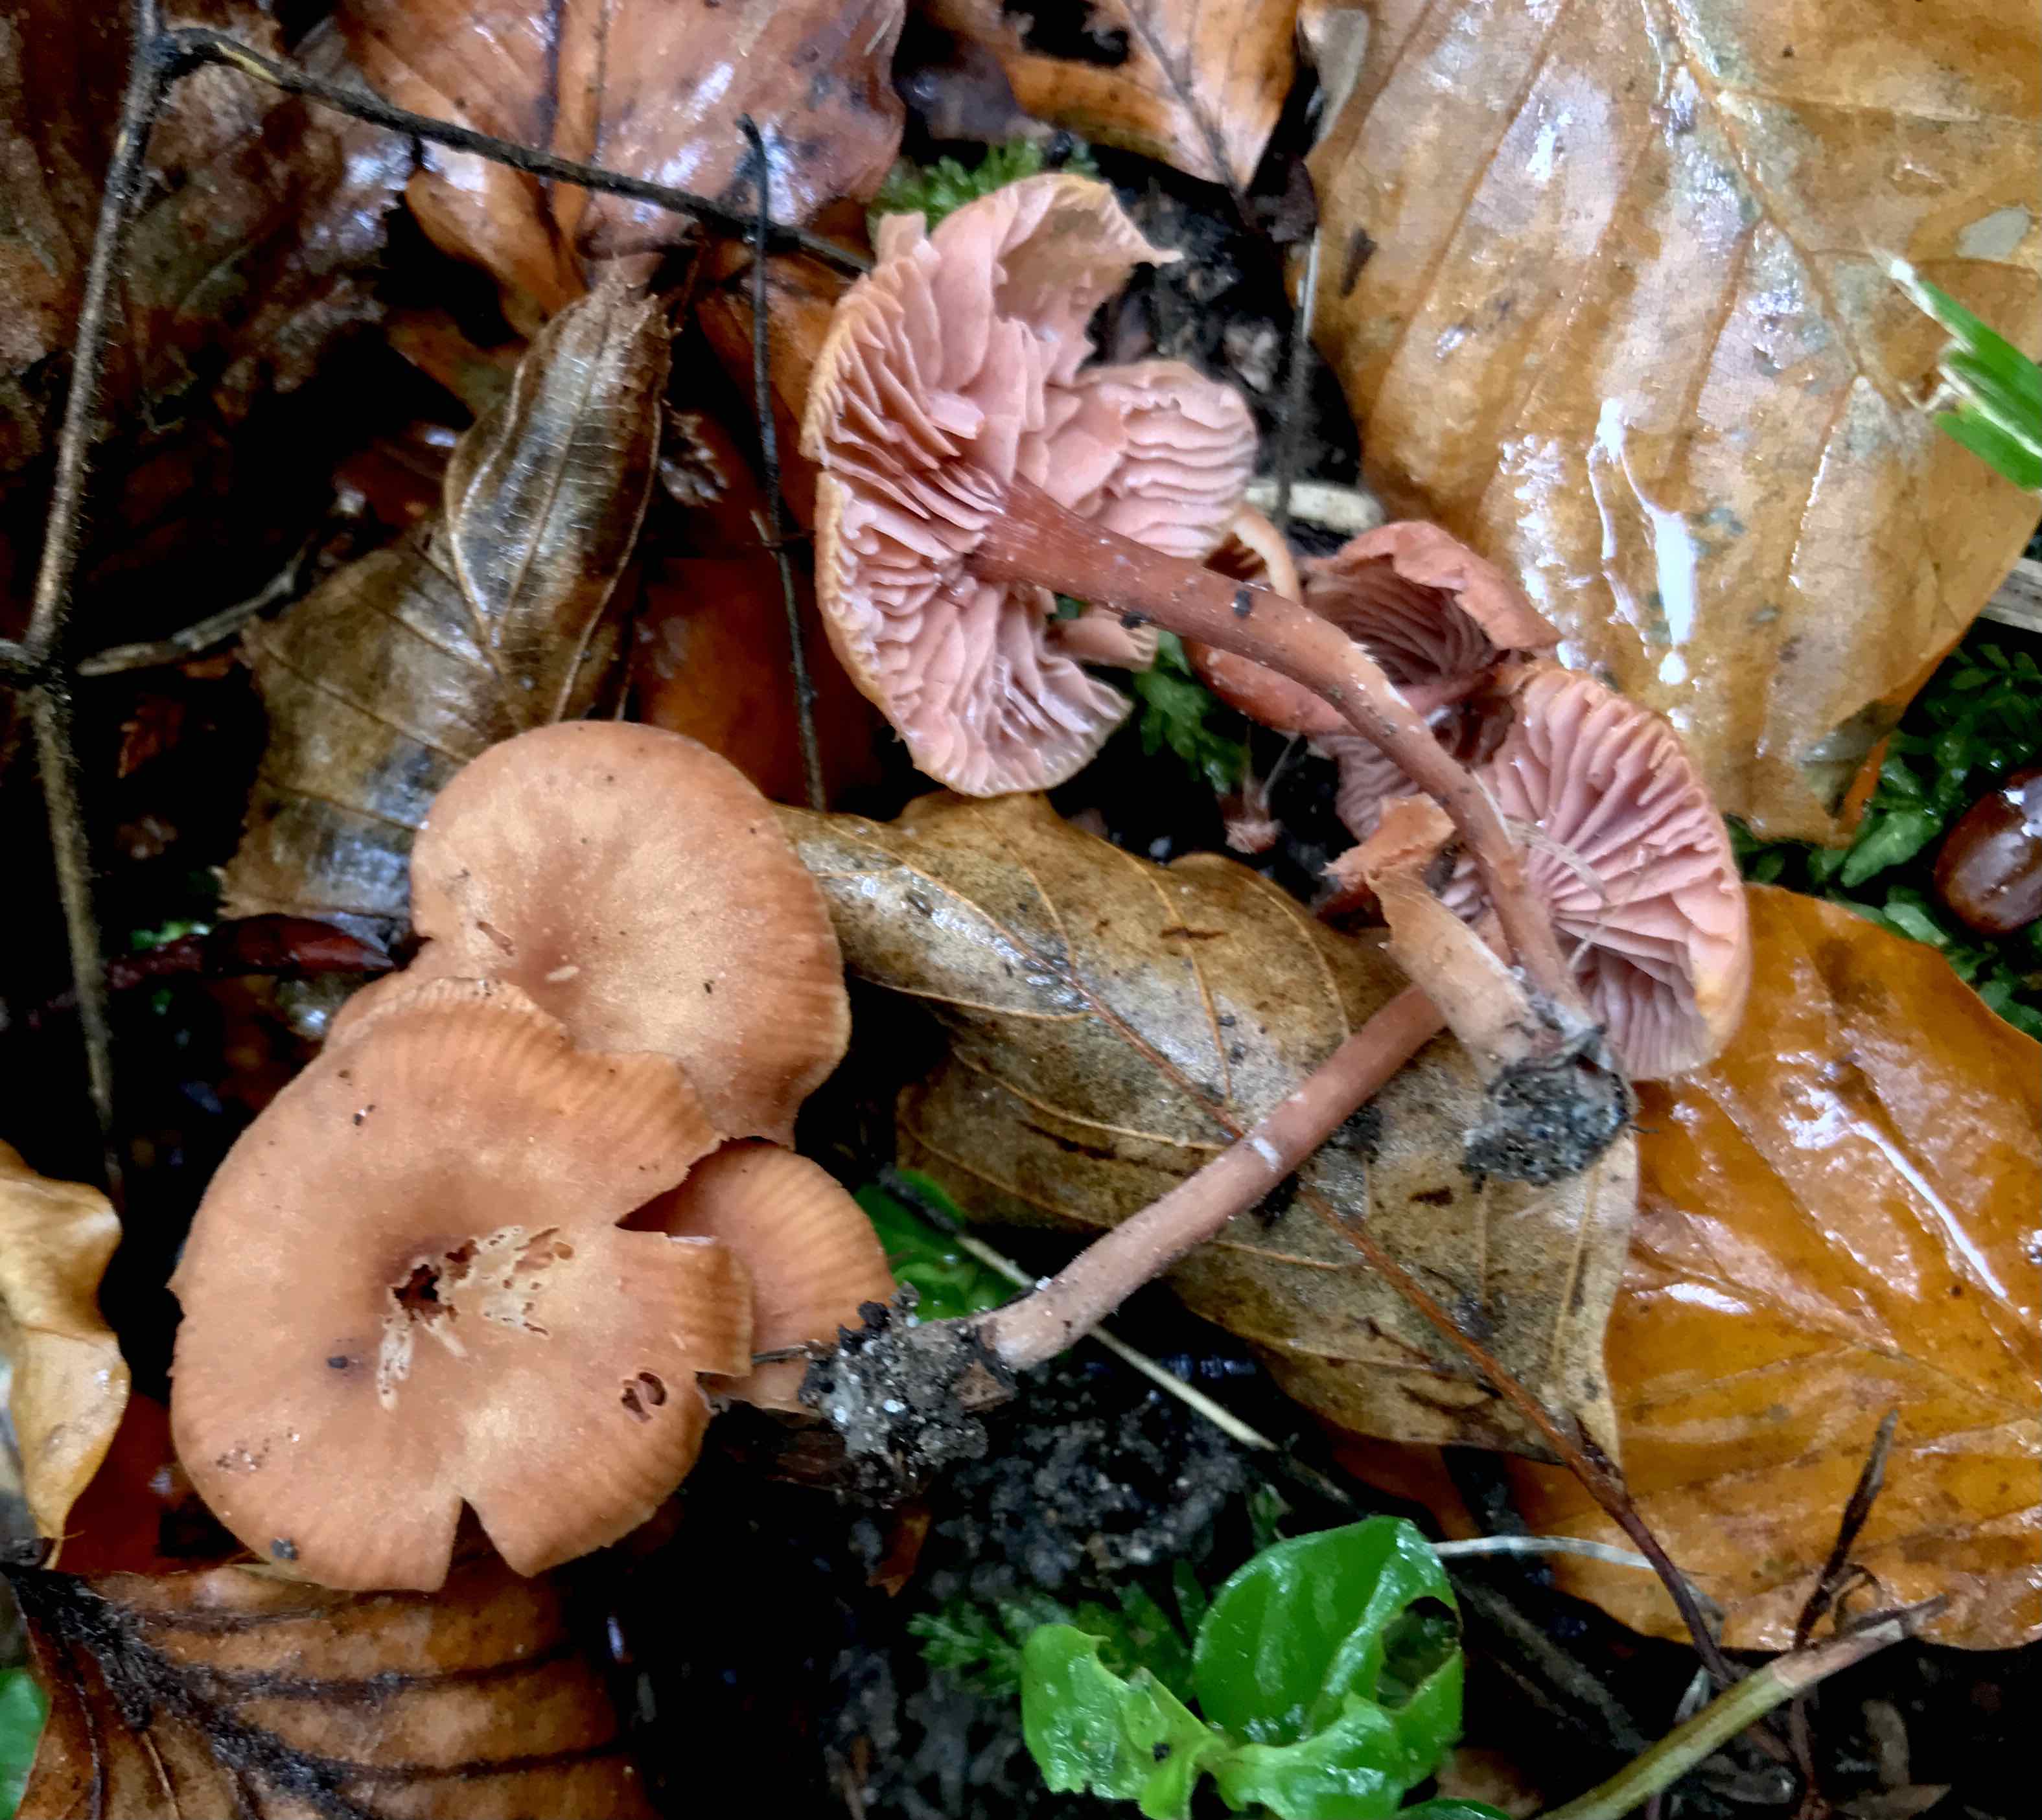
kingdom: Fungi
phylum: Basidiomycota
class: Agaricomycetes
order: Agaricales
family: Hydnangiaceae
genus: Laccaria
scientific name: Laccaria laccata
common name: rød ametysthat
